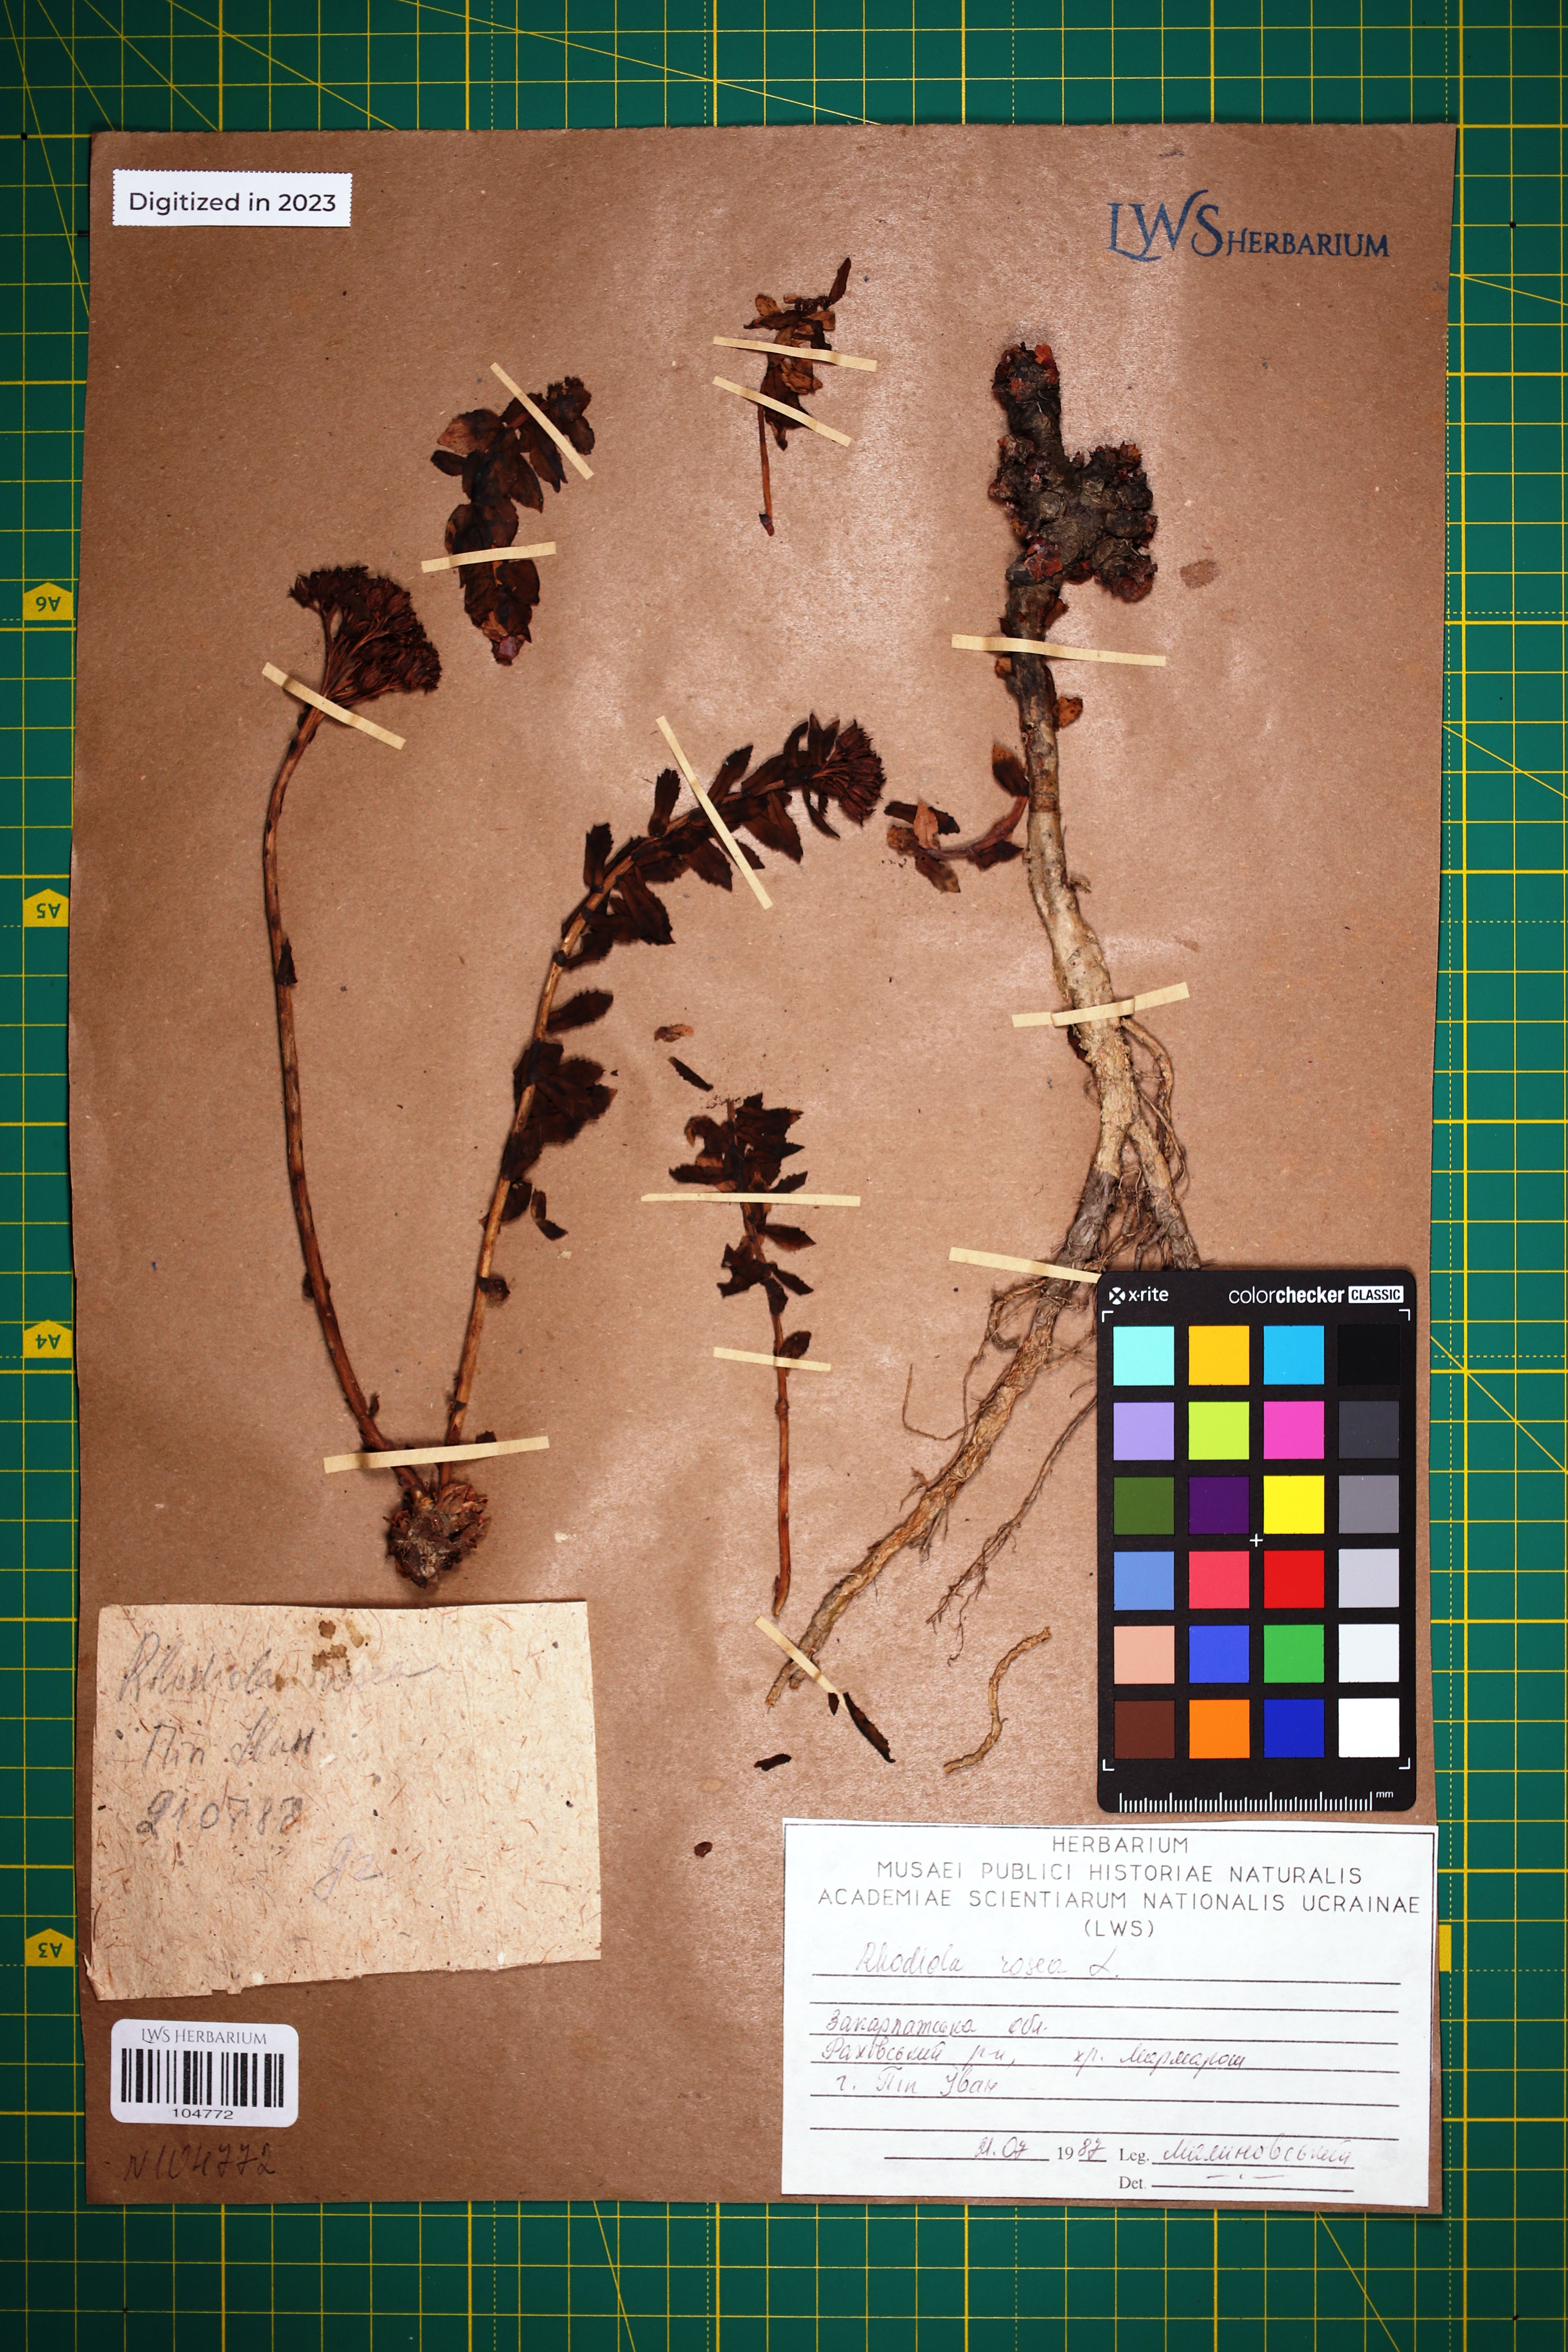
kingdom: Plantae
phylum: Tracheophyta
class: Magnoliopsida
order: Saxifragales
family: Crassulaceae
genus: Rhodiola
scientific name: Rhodiola rosea
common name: Roseroot
